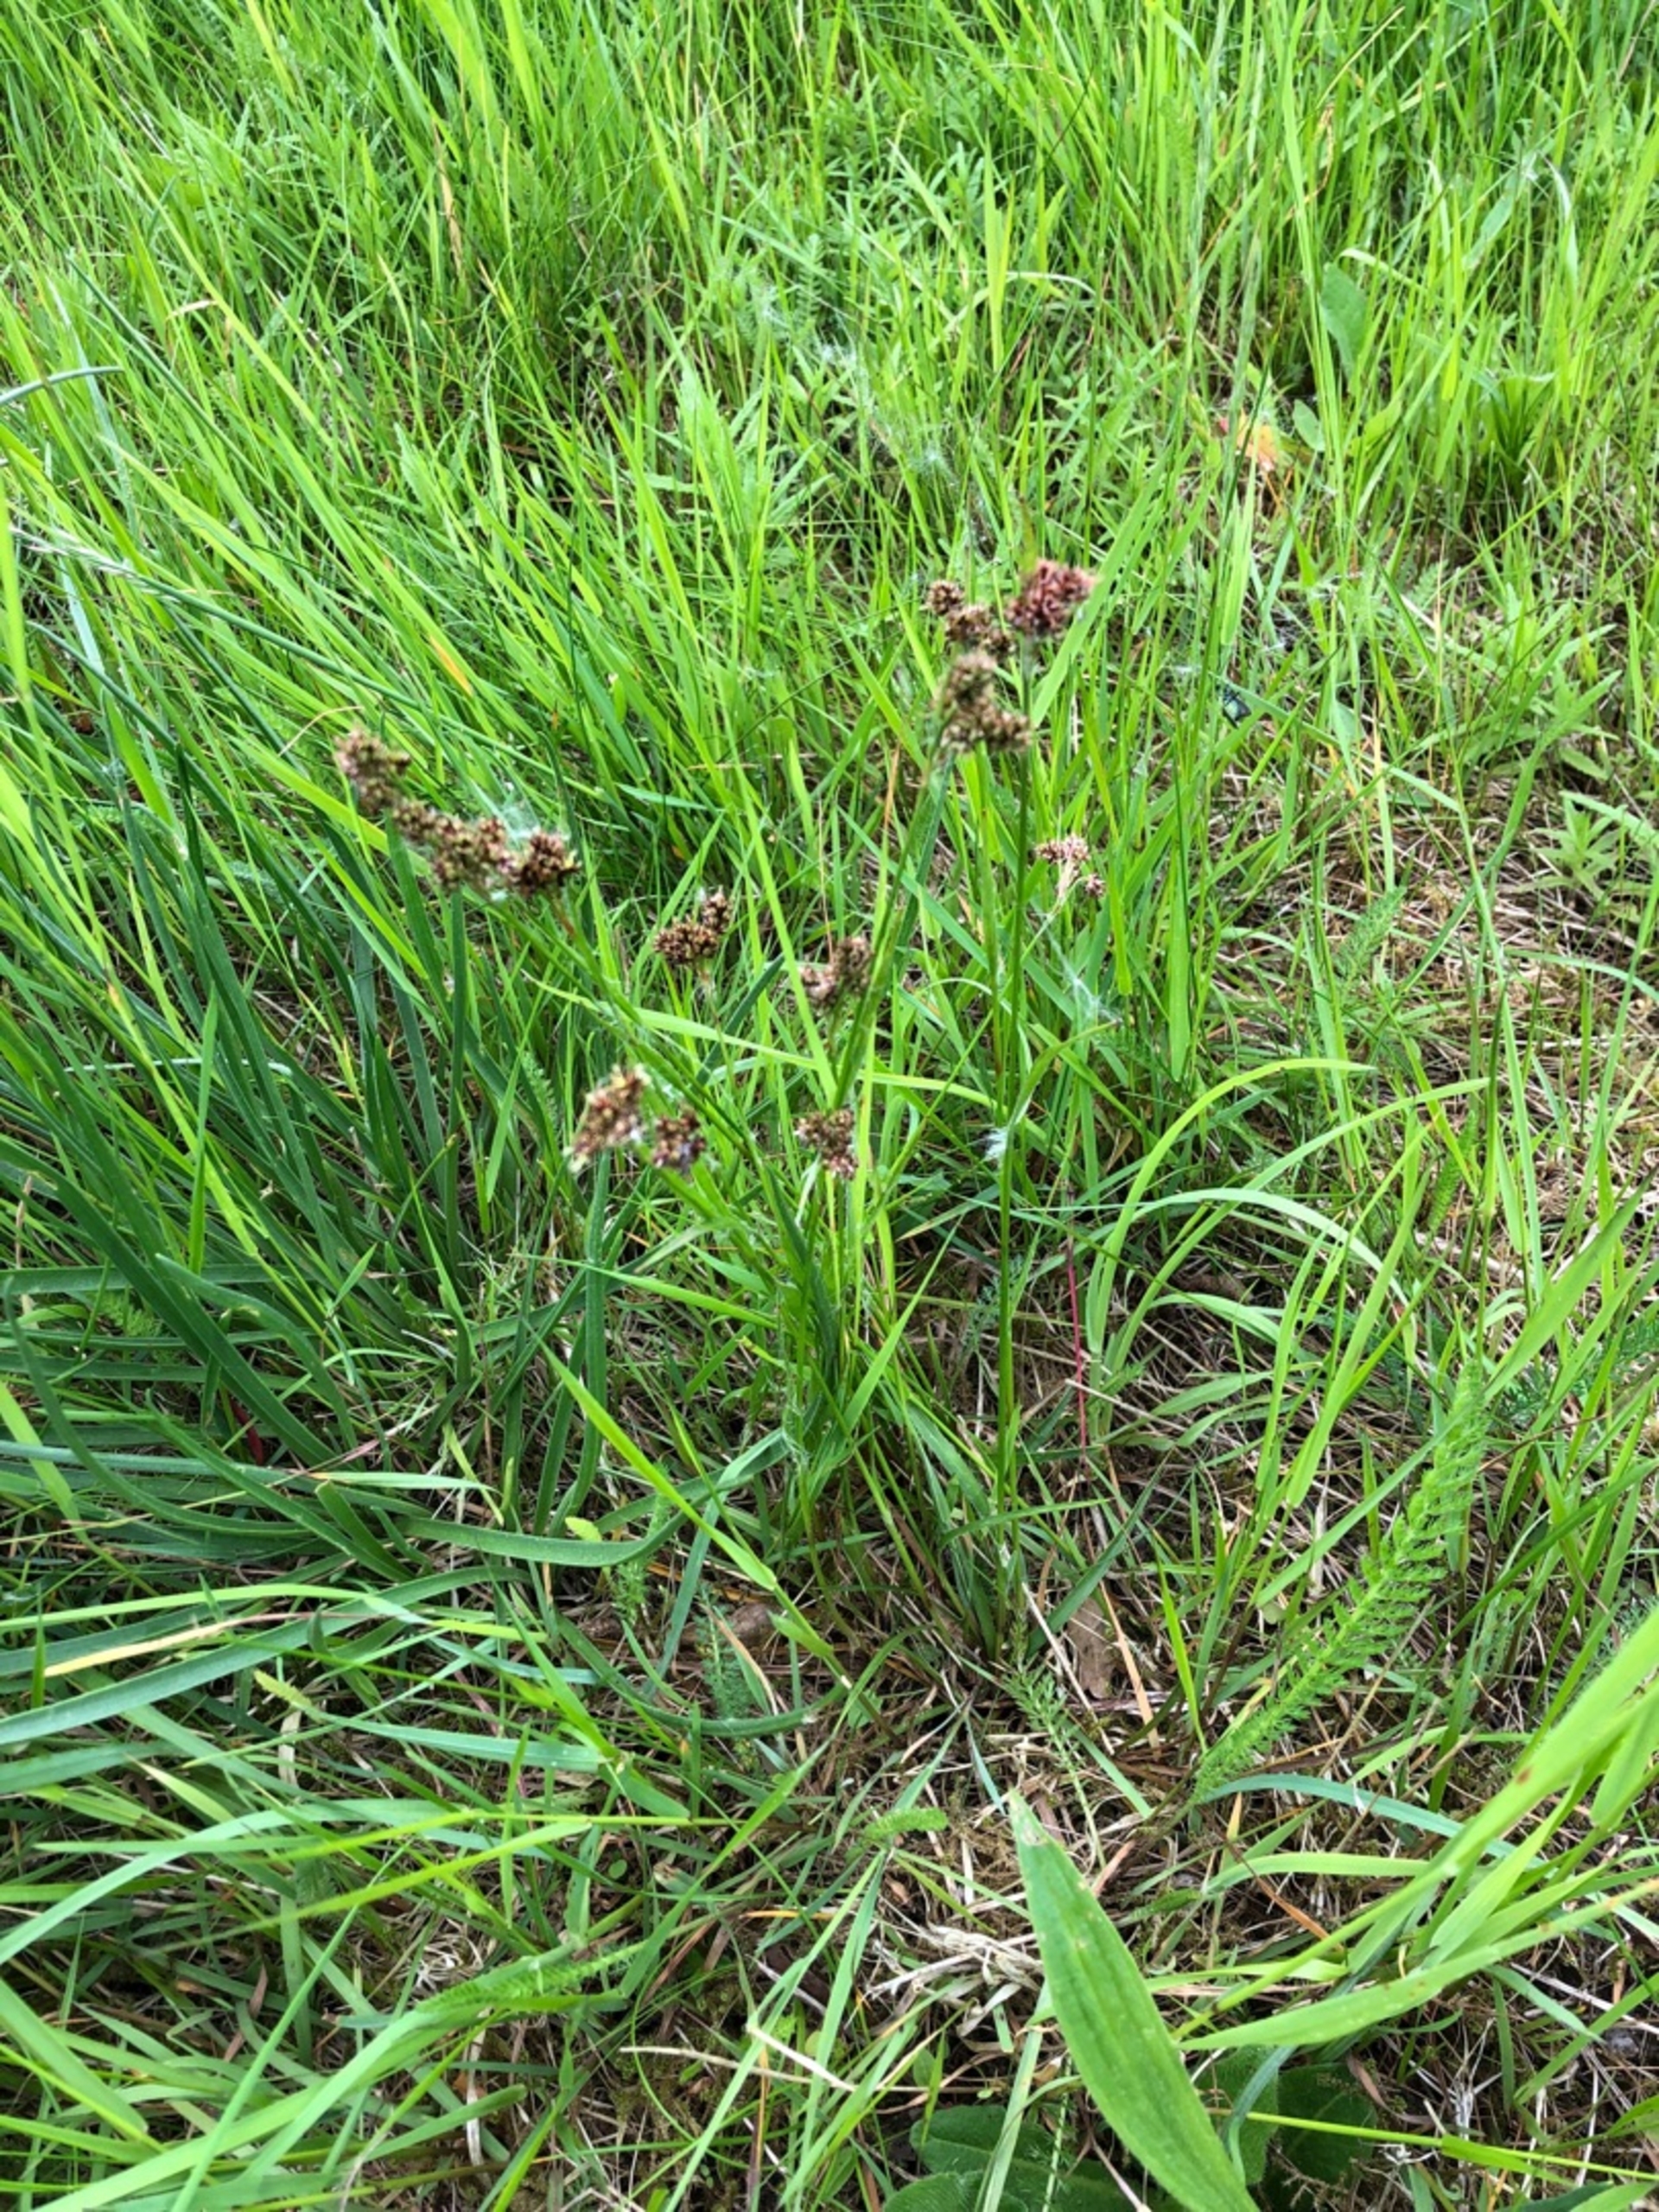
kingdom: Plantae
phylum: Tracheophyta
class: Liliopsida
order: Poales
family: Juncaceae
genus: Luzula
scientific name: Luzula multiflora
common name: Mangeblomstret frytle
